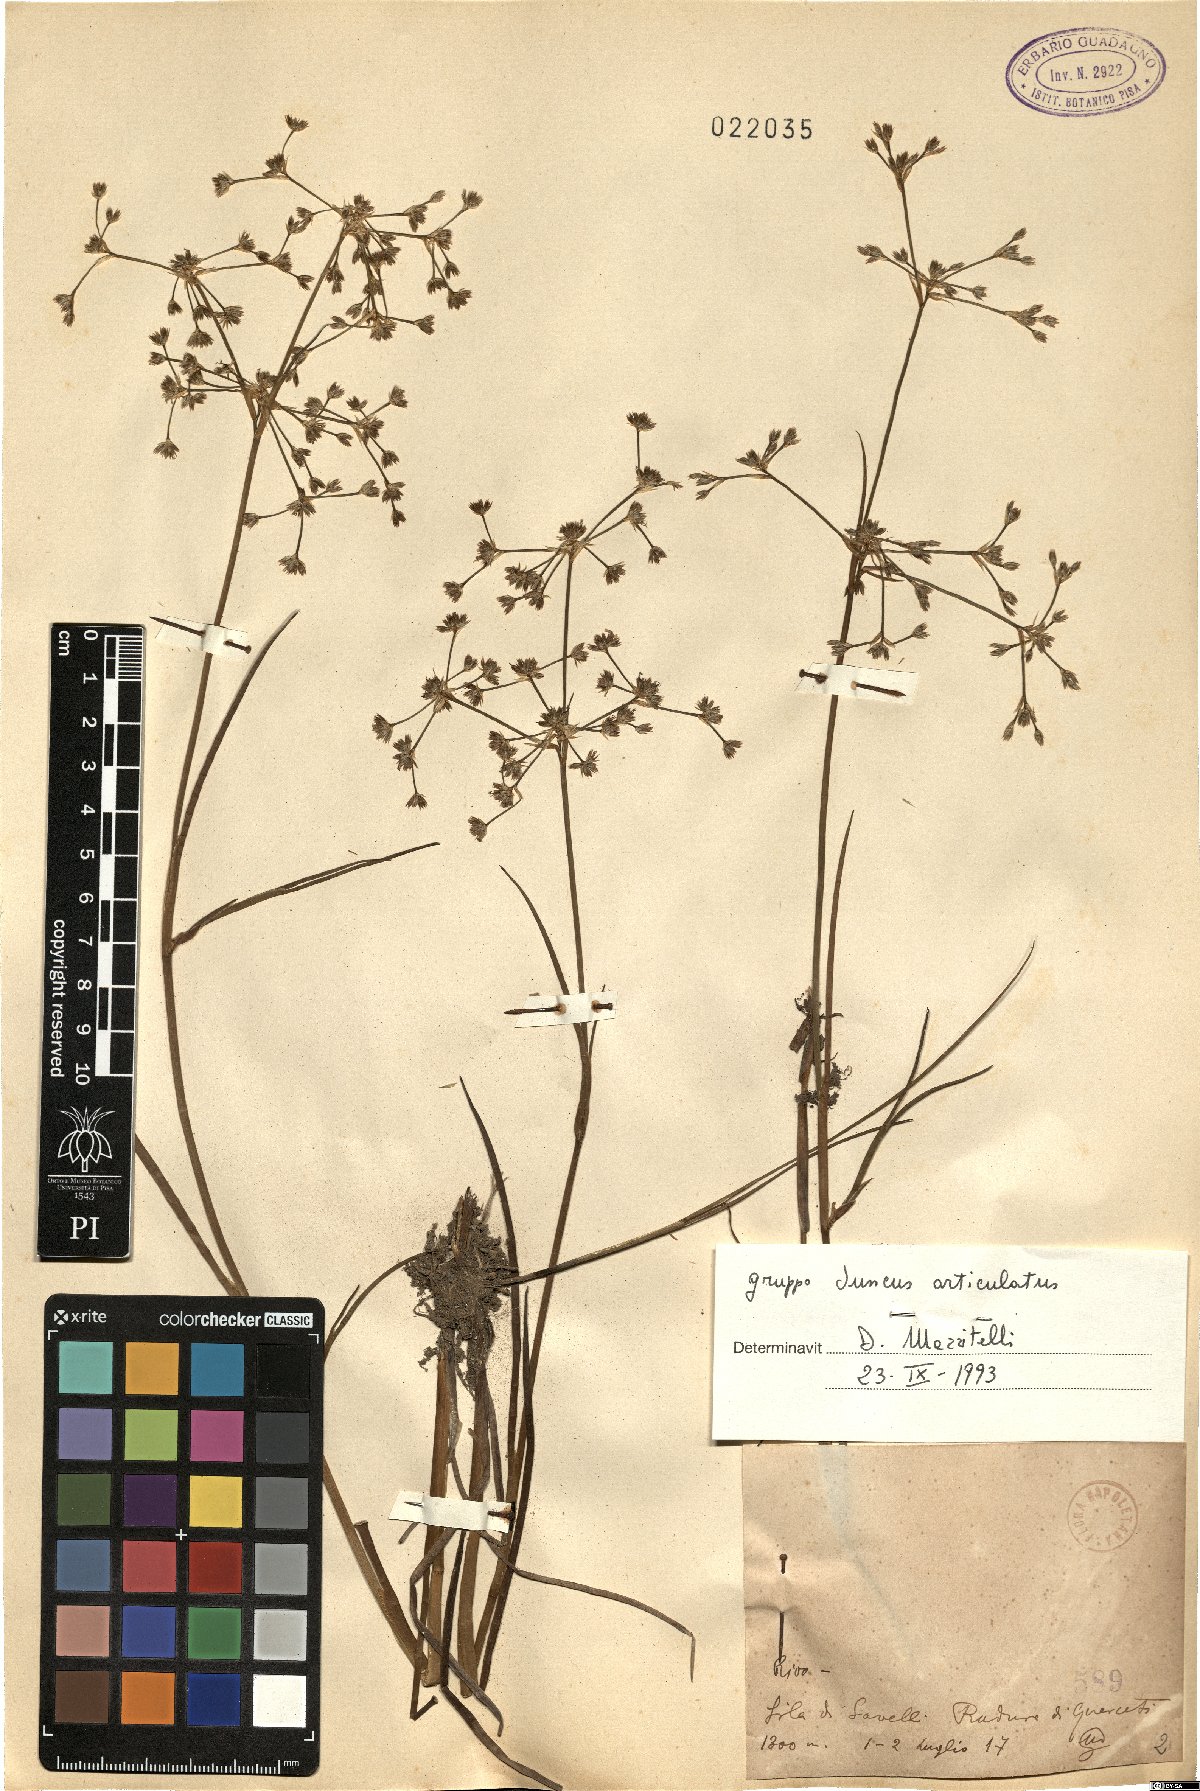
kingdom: Plantae
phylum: Tracheophyta
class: Liliopsida
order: Poales
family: Juncaceae
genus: Juncus
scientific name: Juncus articulatus
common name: Jointed rush
